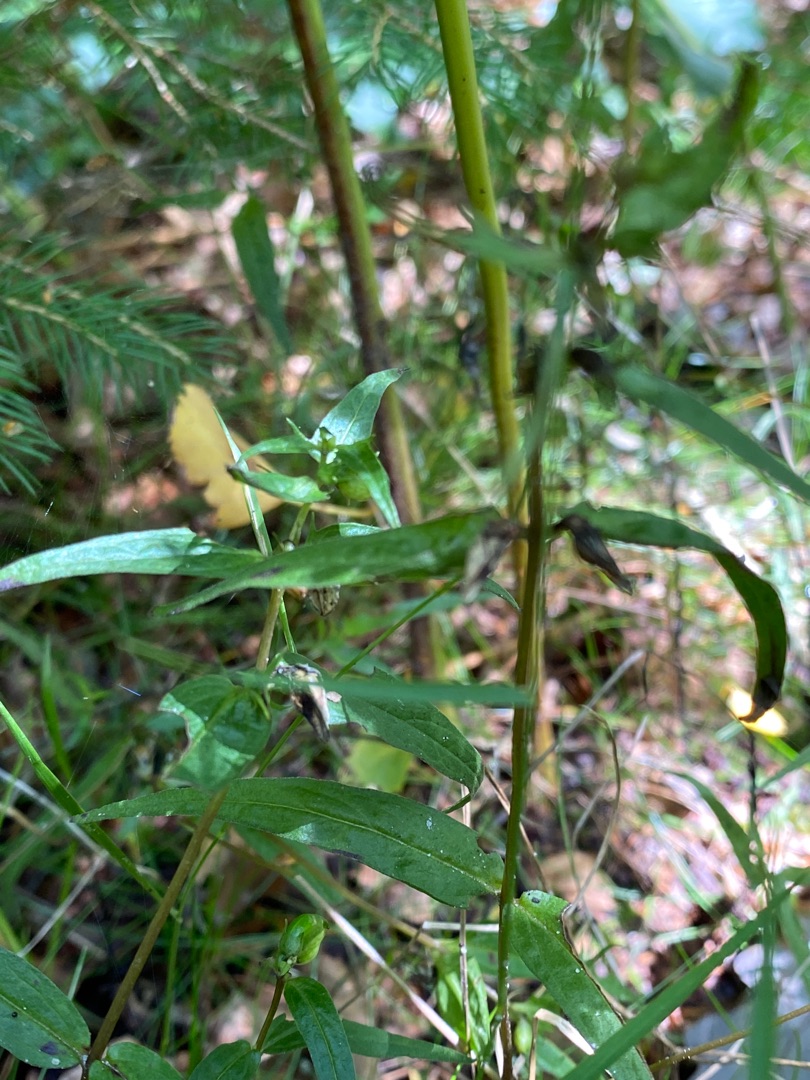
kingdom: Plantae
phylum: Tracheophyta
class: Magnoliopsida
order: Lamiales
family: Orobanchaceae
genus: Melampyrum
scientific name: Melampyrum pratense
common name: Almindelig kohvede
